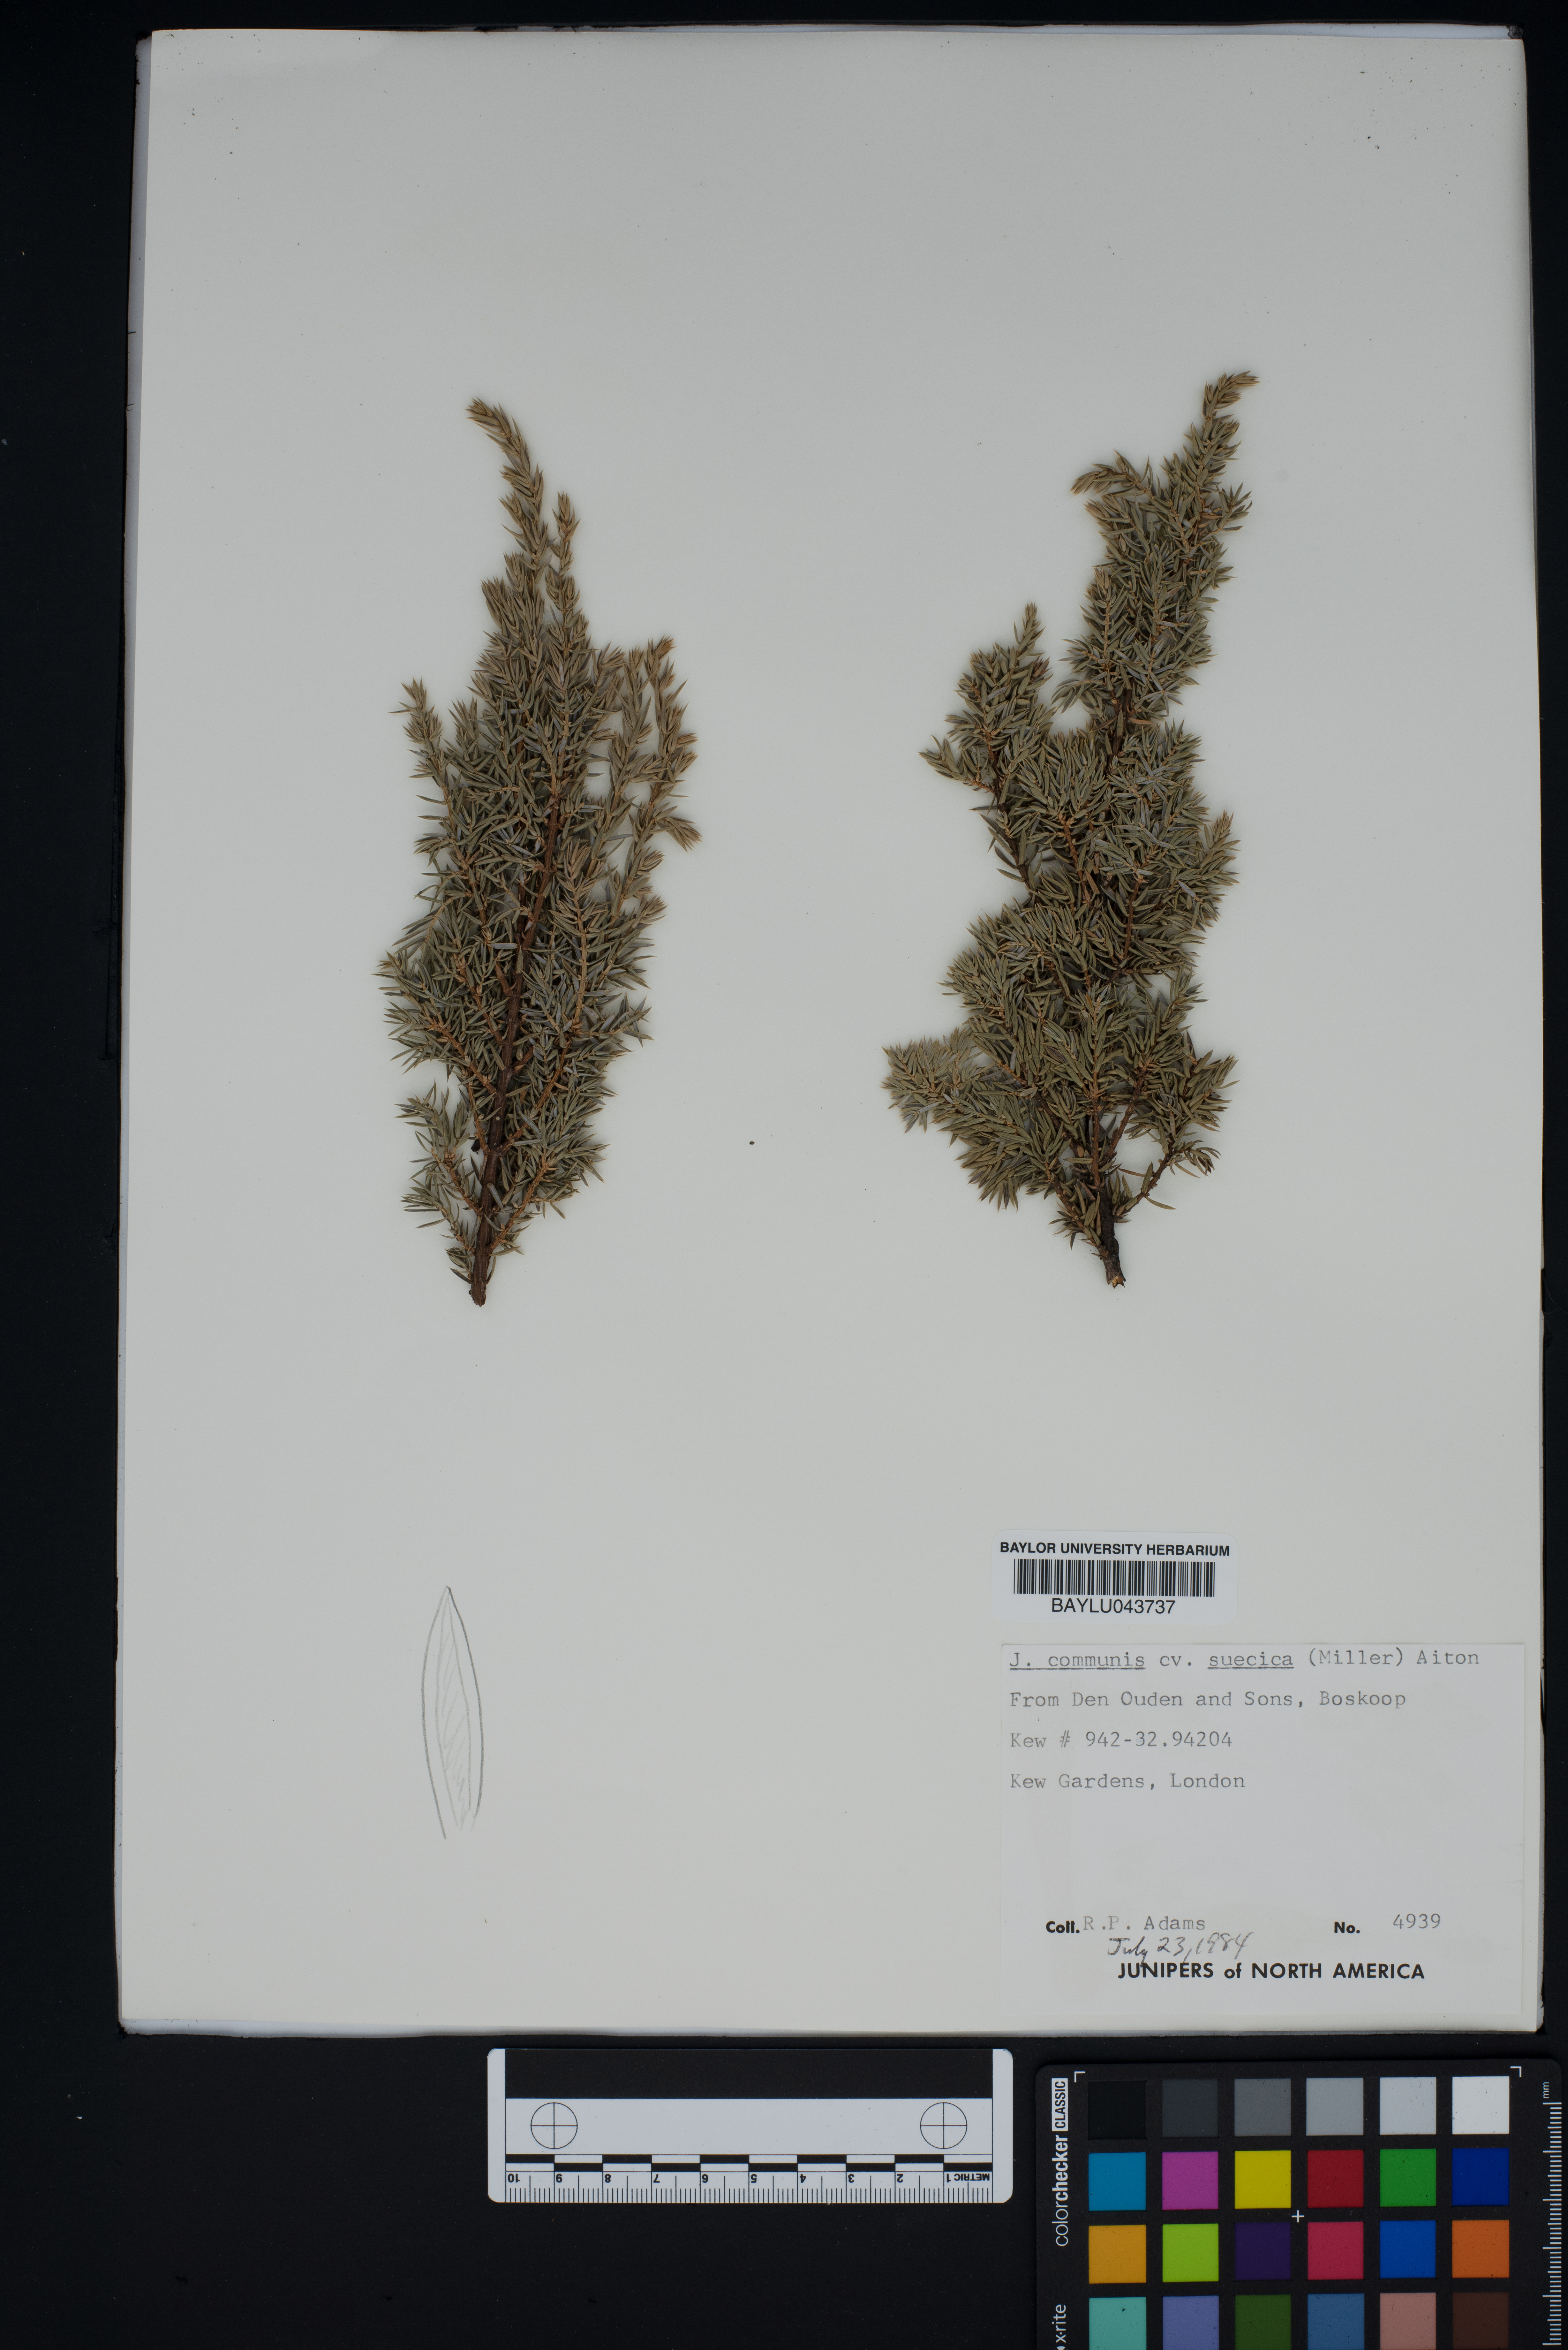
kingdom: Plantae
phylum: Tracheophyta
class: Pinopsida
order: Pinales
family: Cupressaceae
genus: Juniperus
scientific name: Juniperus communis
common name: Common juniper
